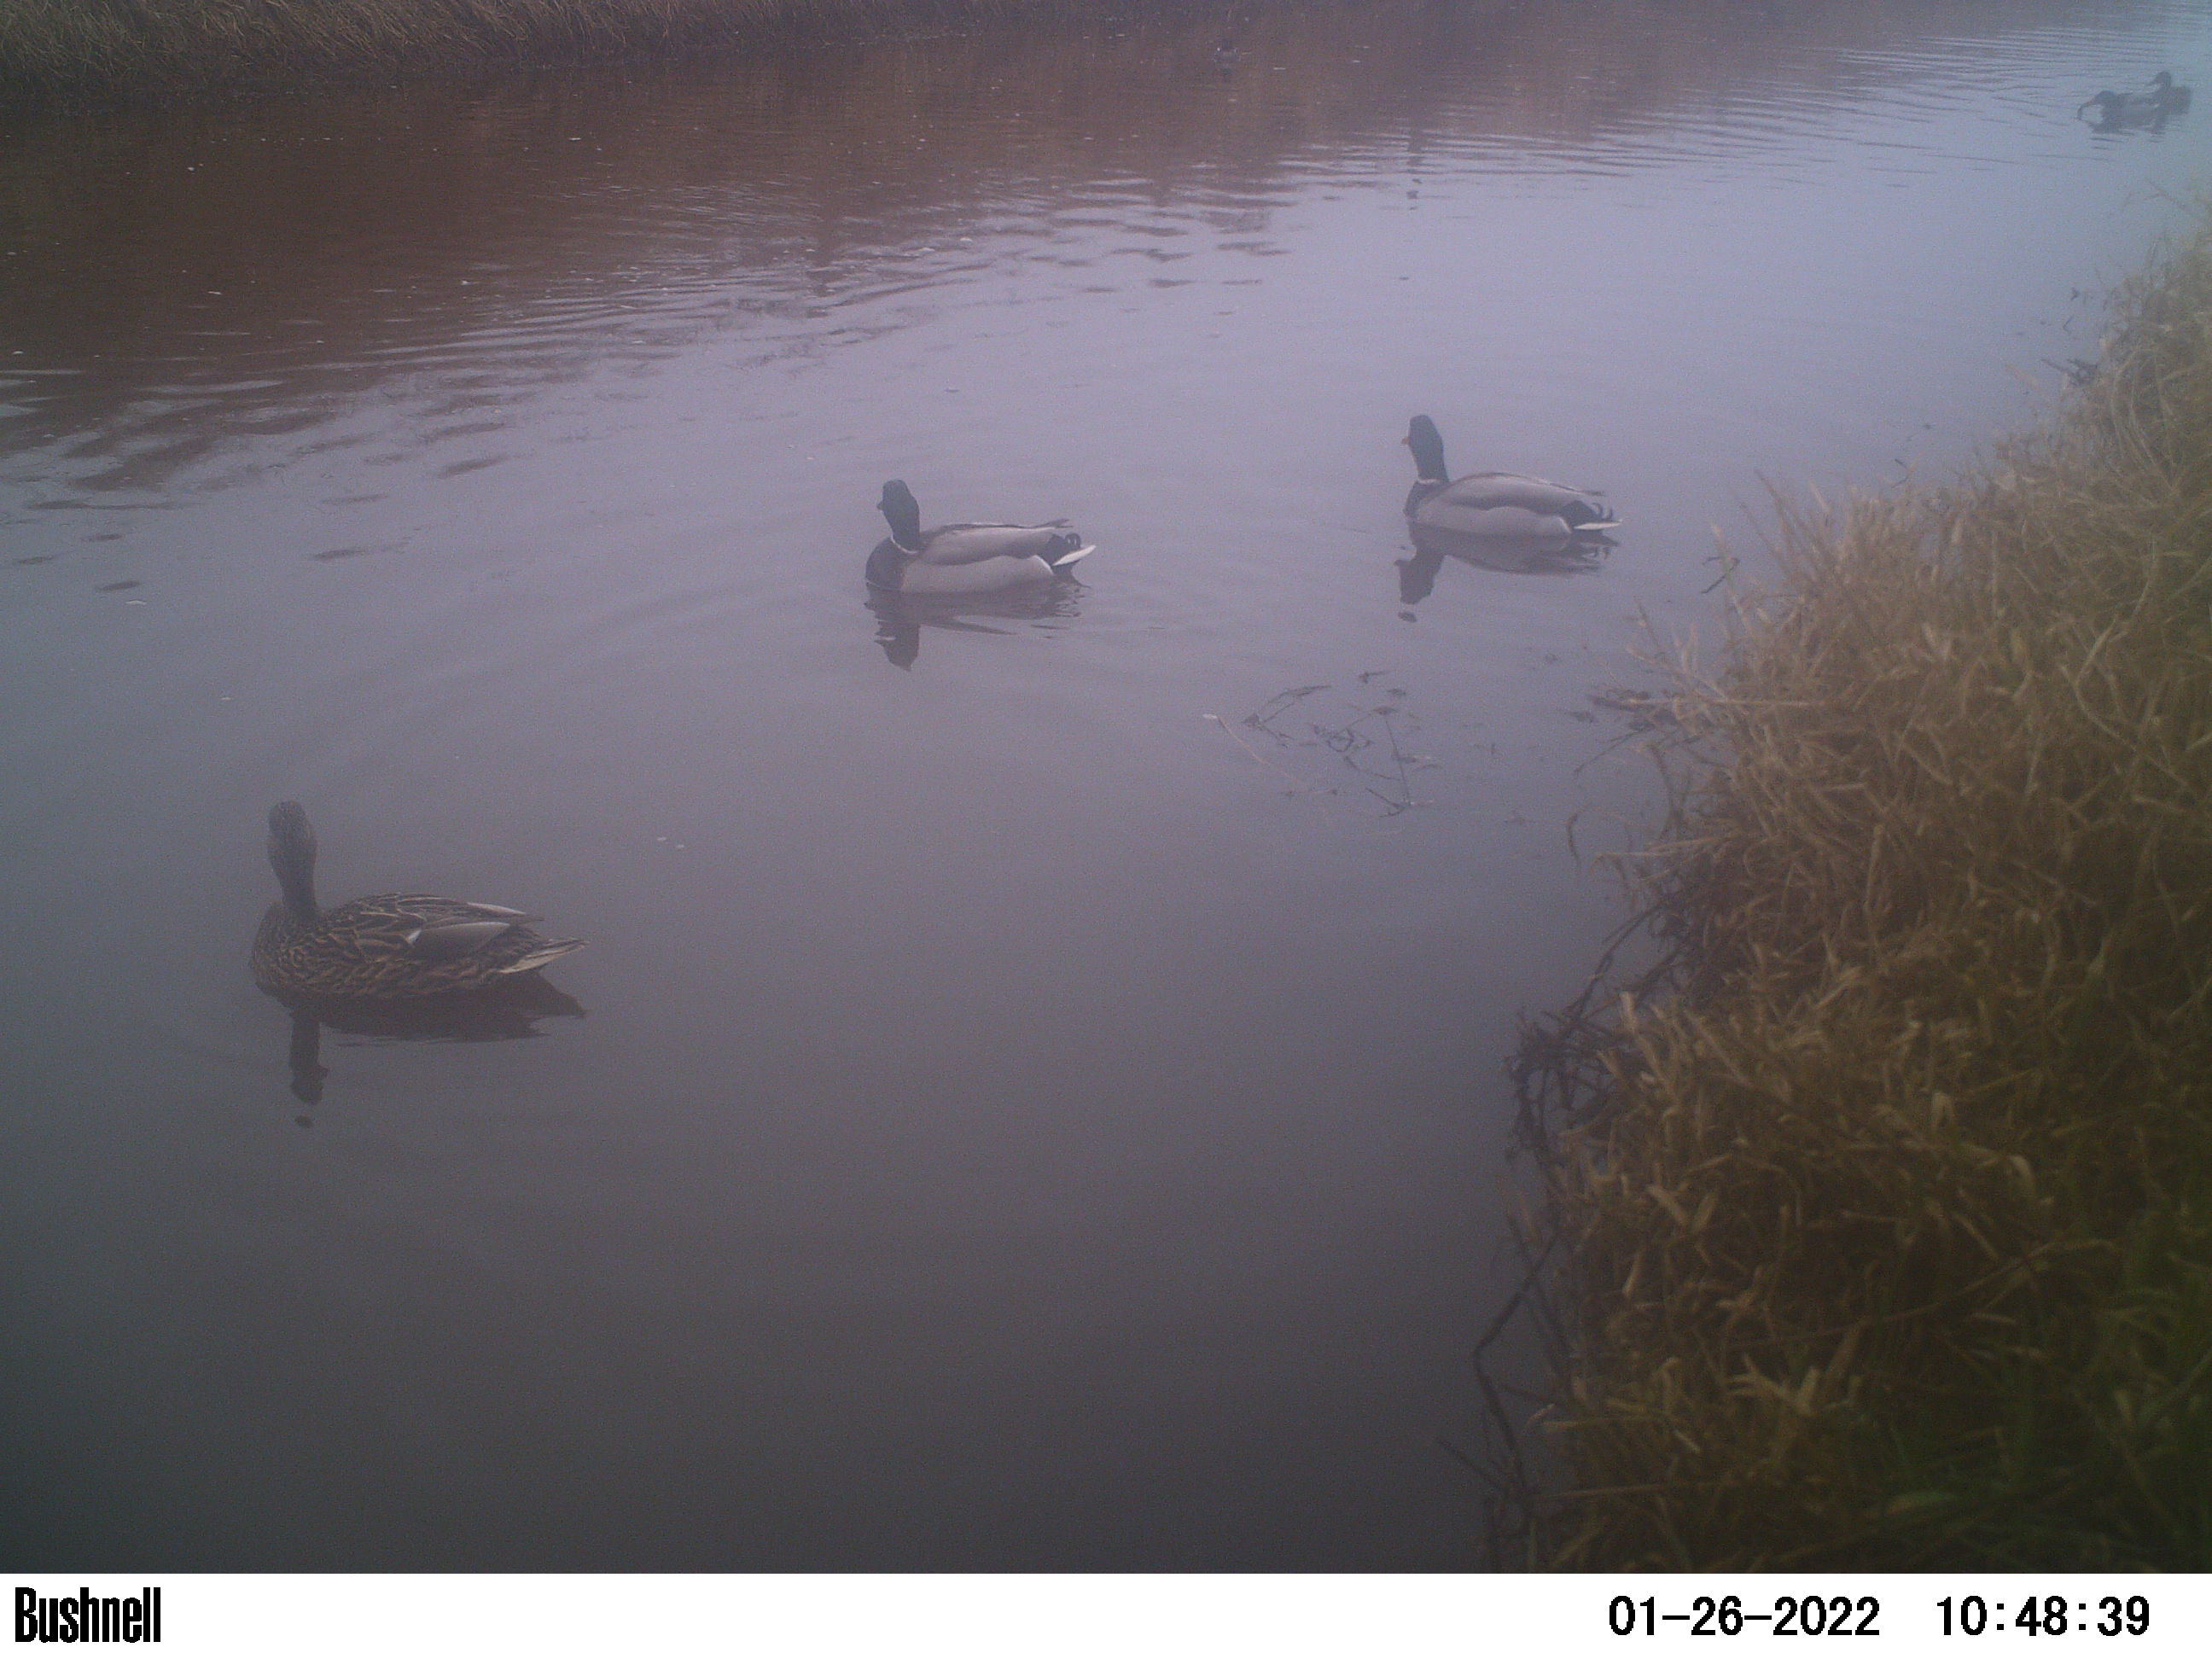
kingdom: Animalia
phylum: Chordata
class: Aves
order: Anseriformes
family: Anatidae
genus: Anas
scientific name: Anas
